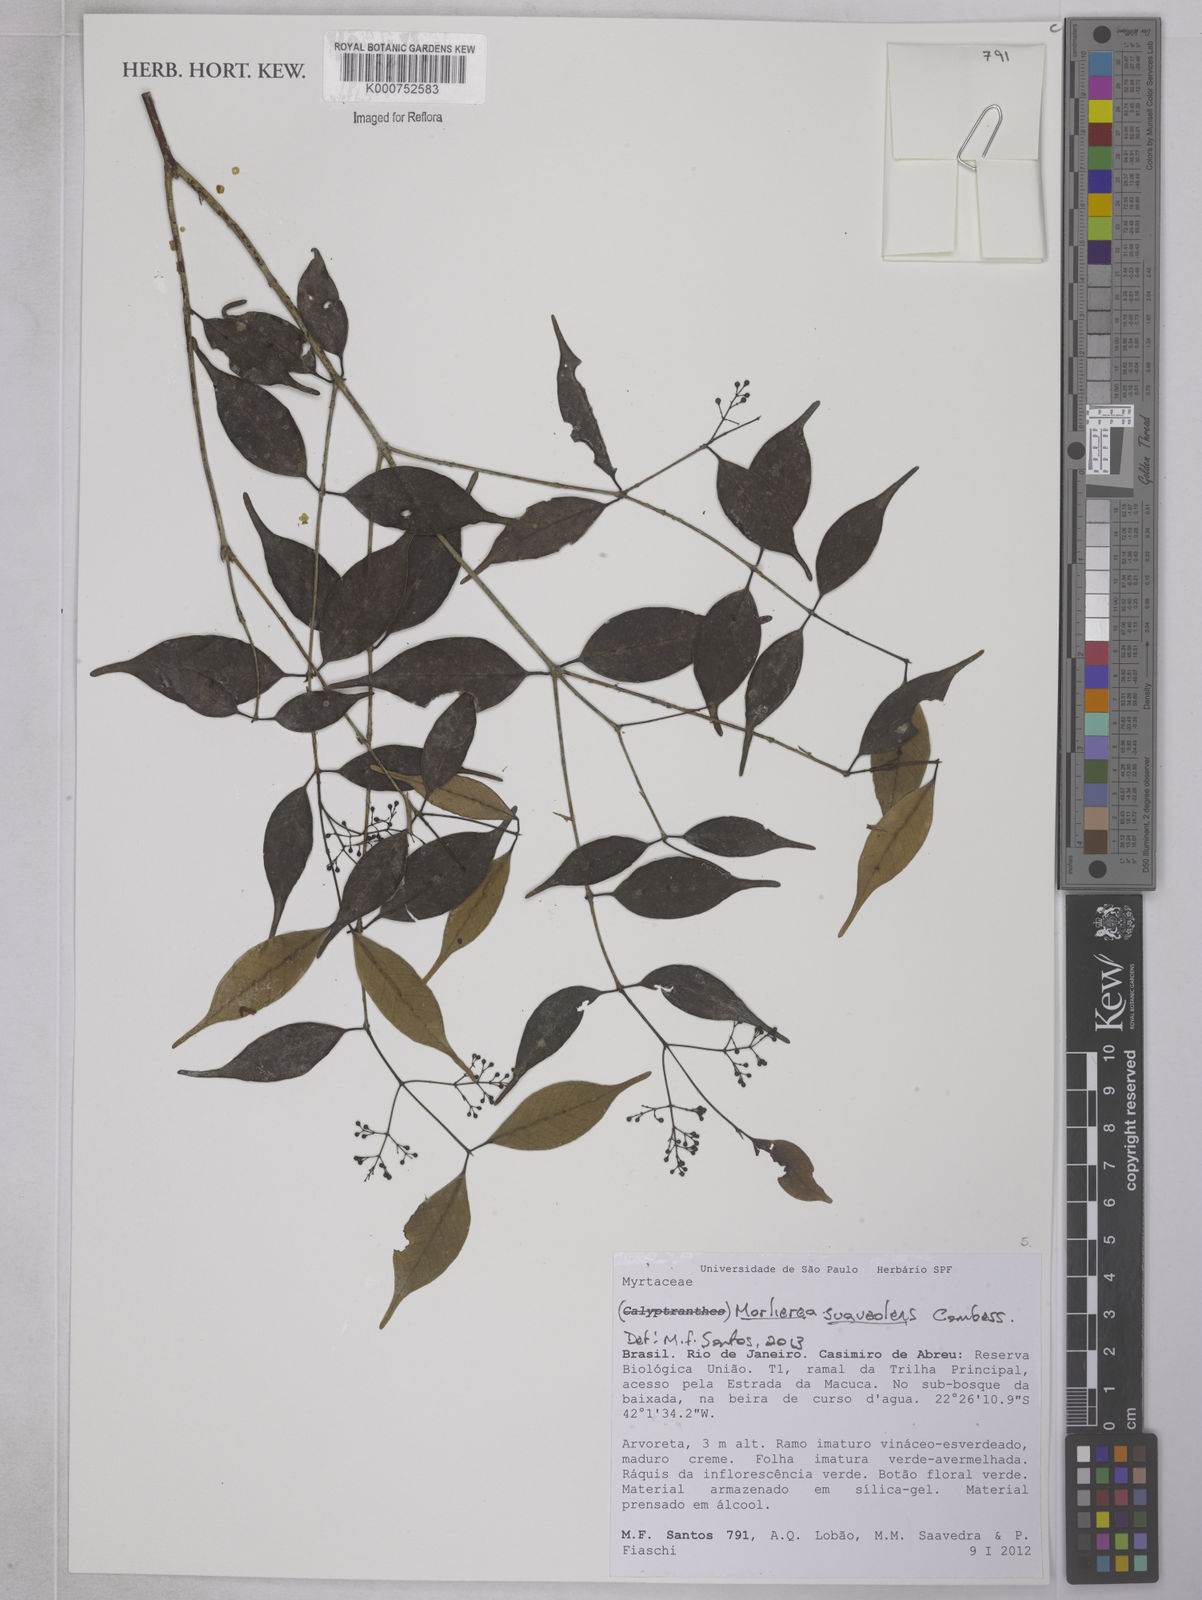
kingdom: Plantae
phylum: Tracheophyta
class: Magnoliopsida
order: Myrtales
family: Myrtaceae
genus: Myrcia
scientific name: Myrcia neosuaveolens
